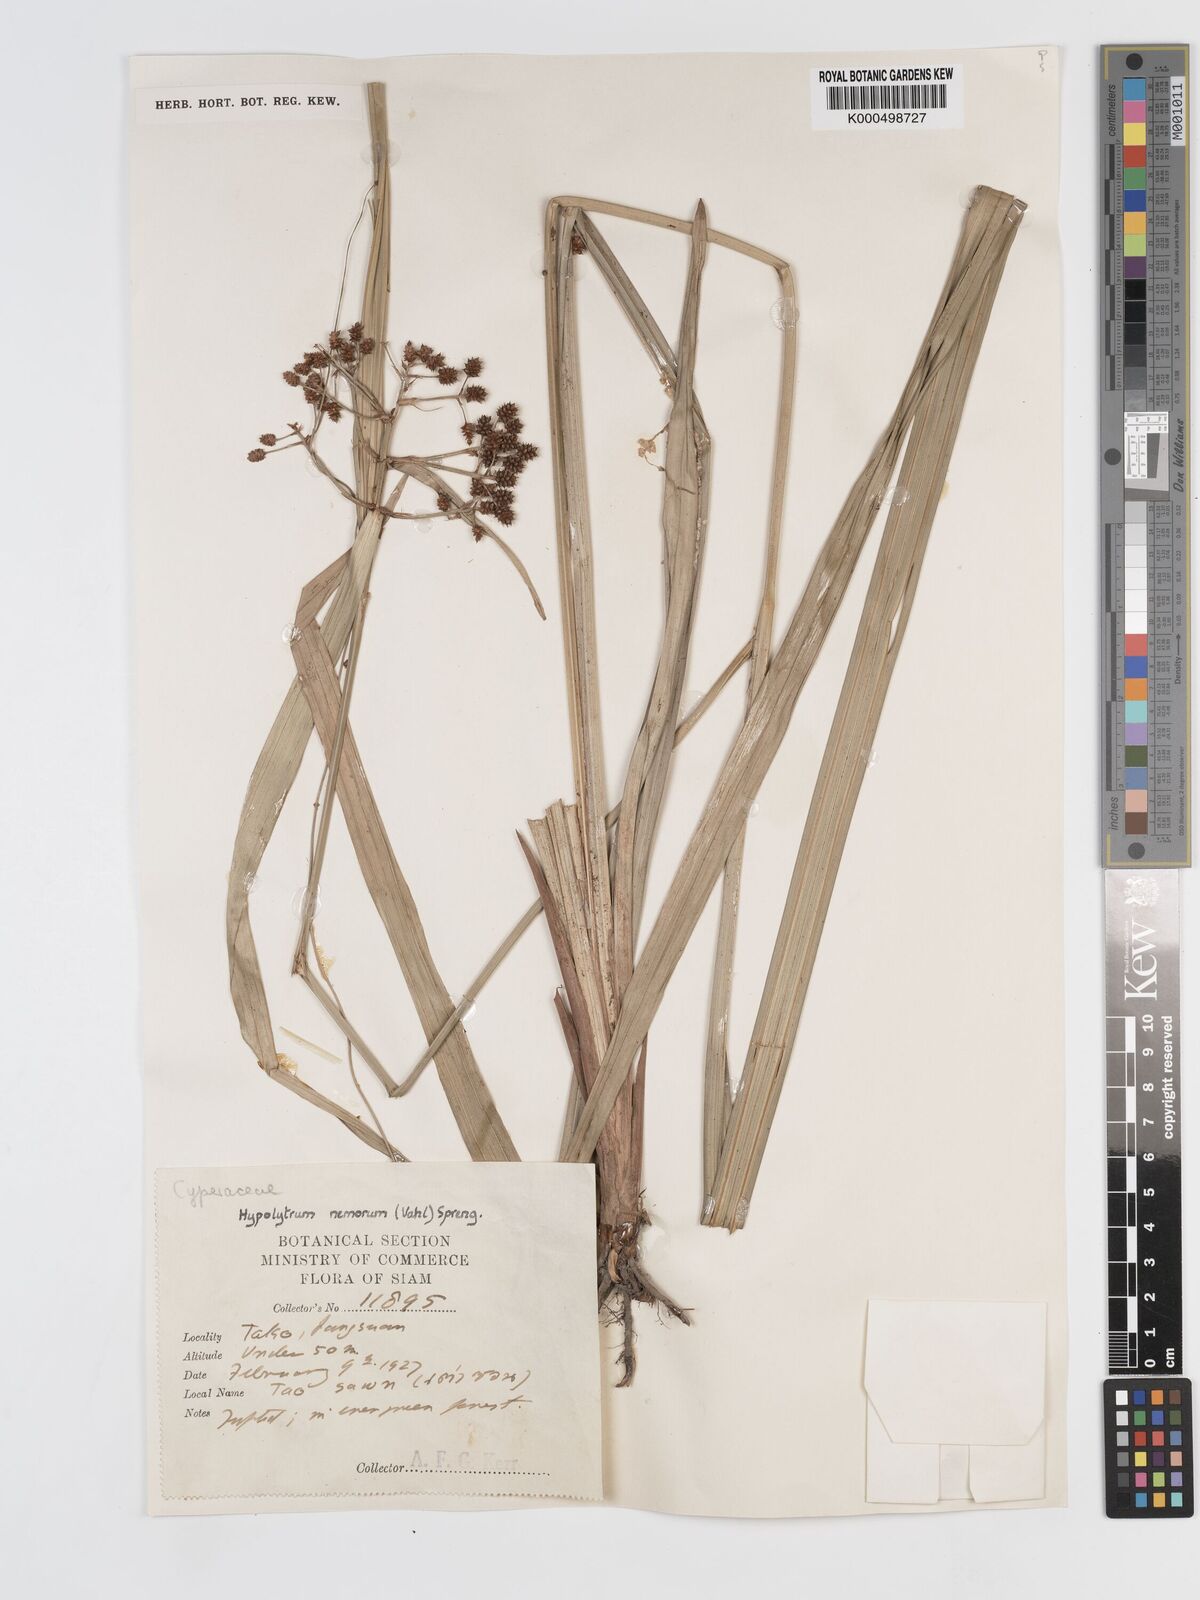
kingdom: Plantae
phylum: Tracheophyta
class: Liliopsida
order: Poales
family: Cyperaceae
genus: Hypolytrum
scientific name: Hypolytrum nemorum
